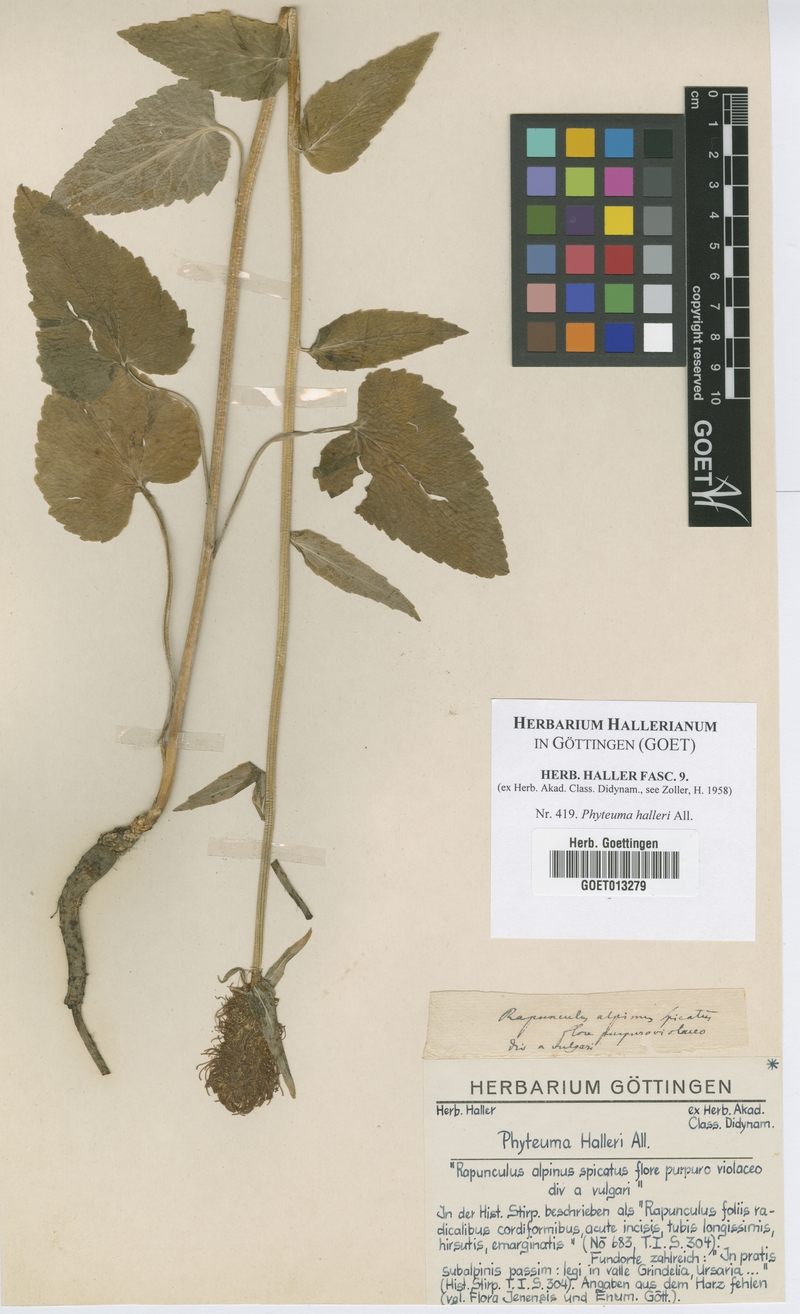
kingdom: Plantae
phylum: Tracheophyta
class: Magnoliopsida
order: Asterales
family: Campanulaceae
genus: Phyteuma
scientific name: Phyteuma ovatum
